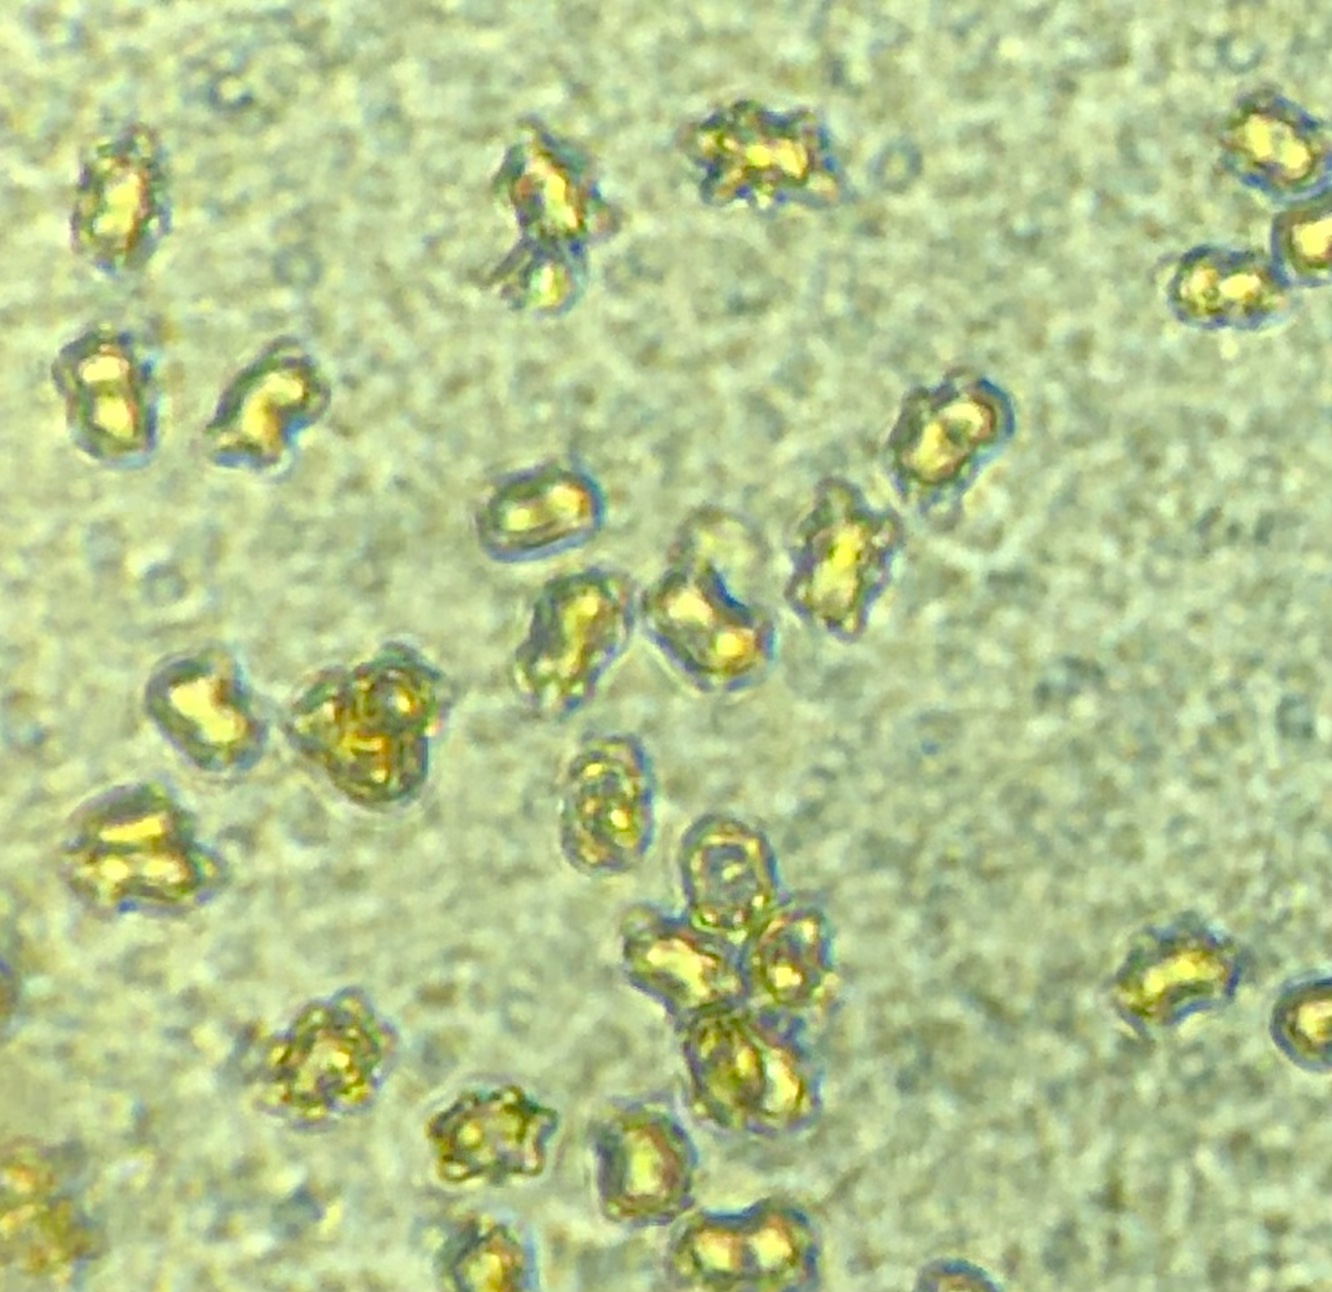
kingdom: Fungi
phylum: Basidiomycota
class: Agaricomycetes
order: Agaricales
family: Inocybaceae
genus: Inocybe
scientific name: Inocybe
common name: trævlhat
